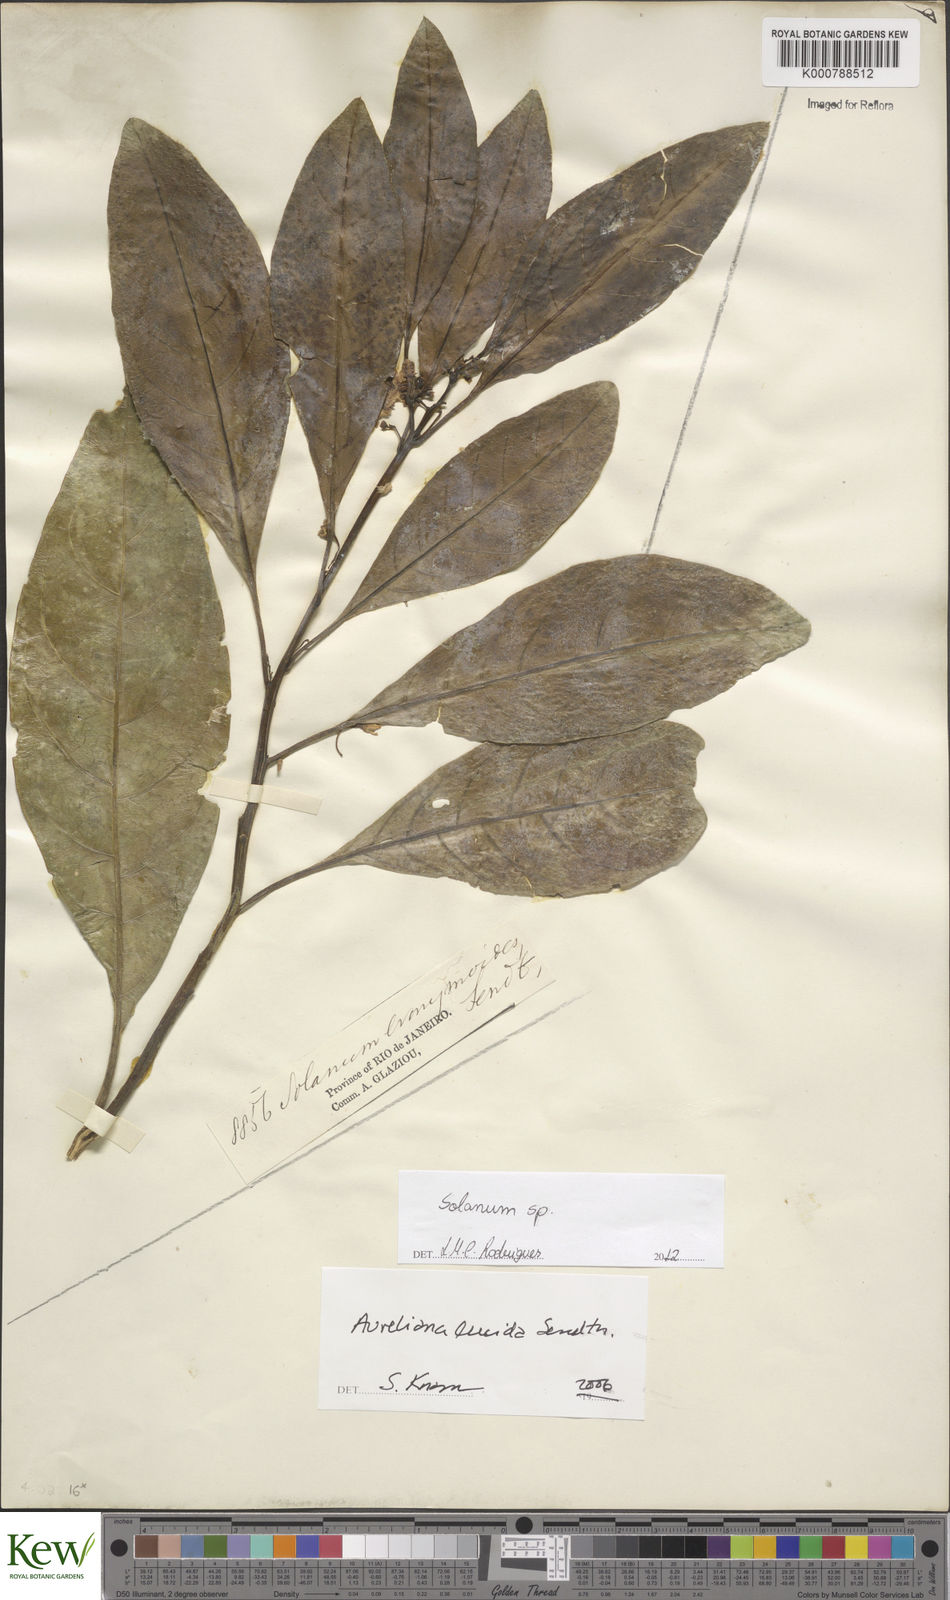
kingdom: Plantae
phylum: Tracheophyta
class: Magnoliopsida
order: Solanales
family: Solanaceae
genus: Solanum
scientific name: Solanum evonymoides
